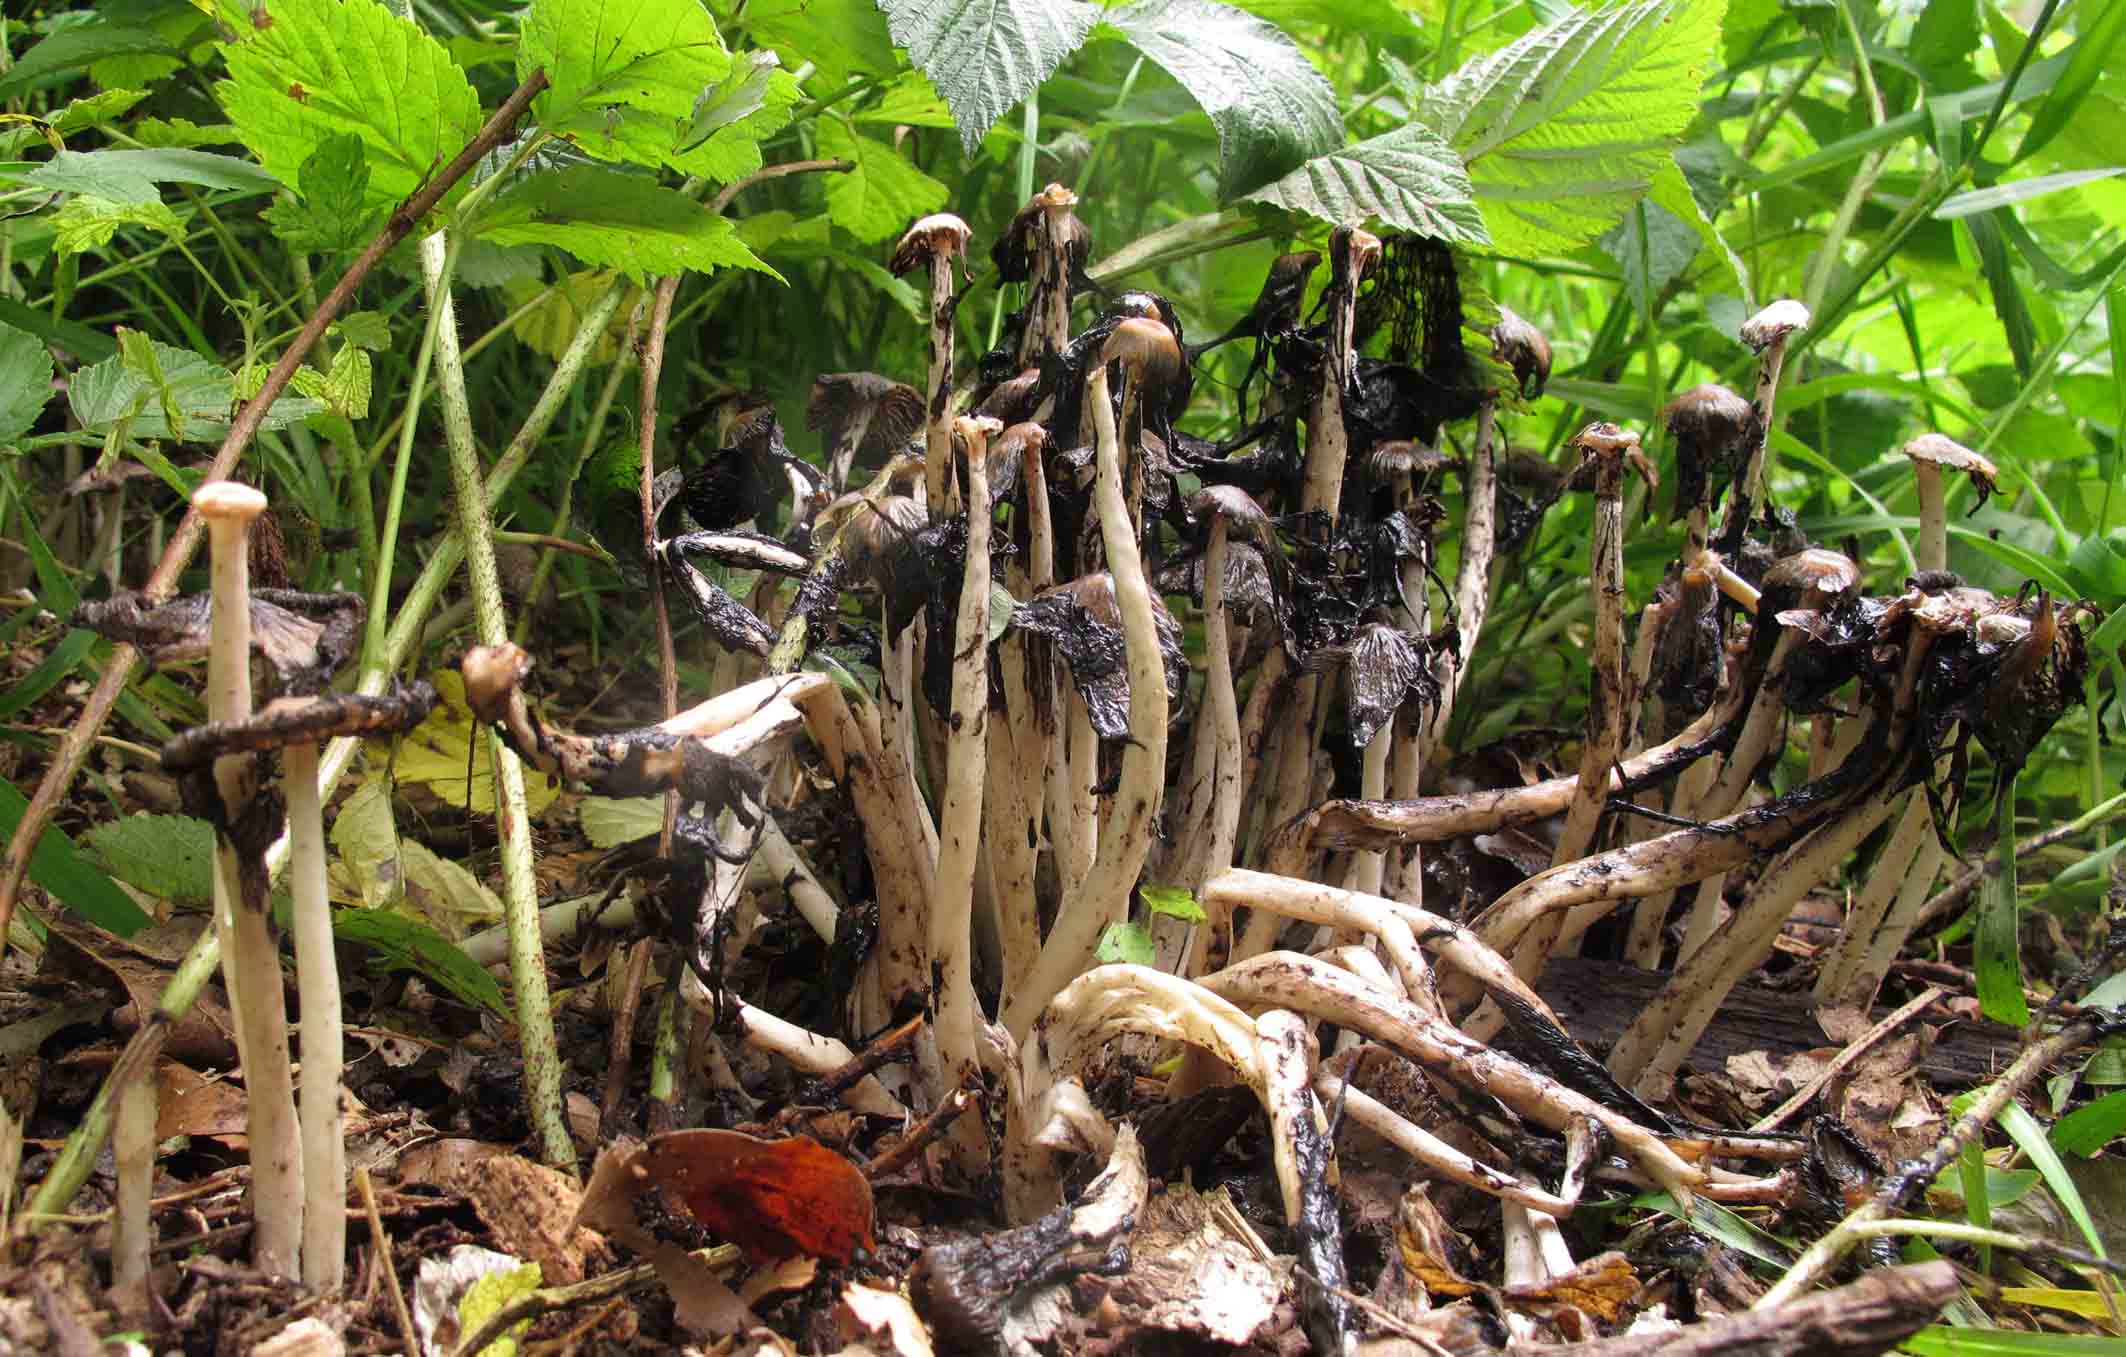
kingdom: Fungi
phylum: Basidiomycota
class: Agaricomycetes
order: Agaricales
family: Psathyrellaceae
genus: Coprinopsis
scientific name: Coprinopsis strossmayeri
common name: hyfestrengs-blækhat
